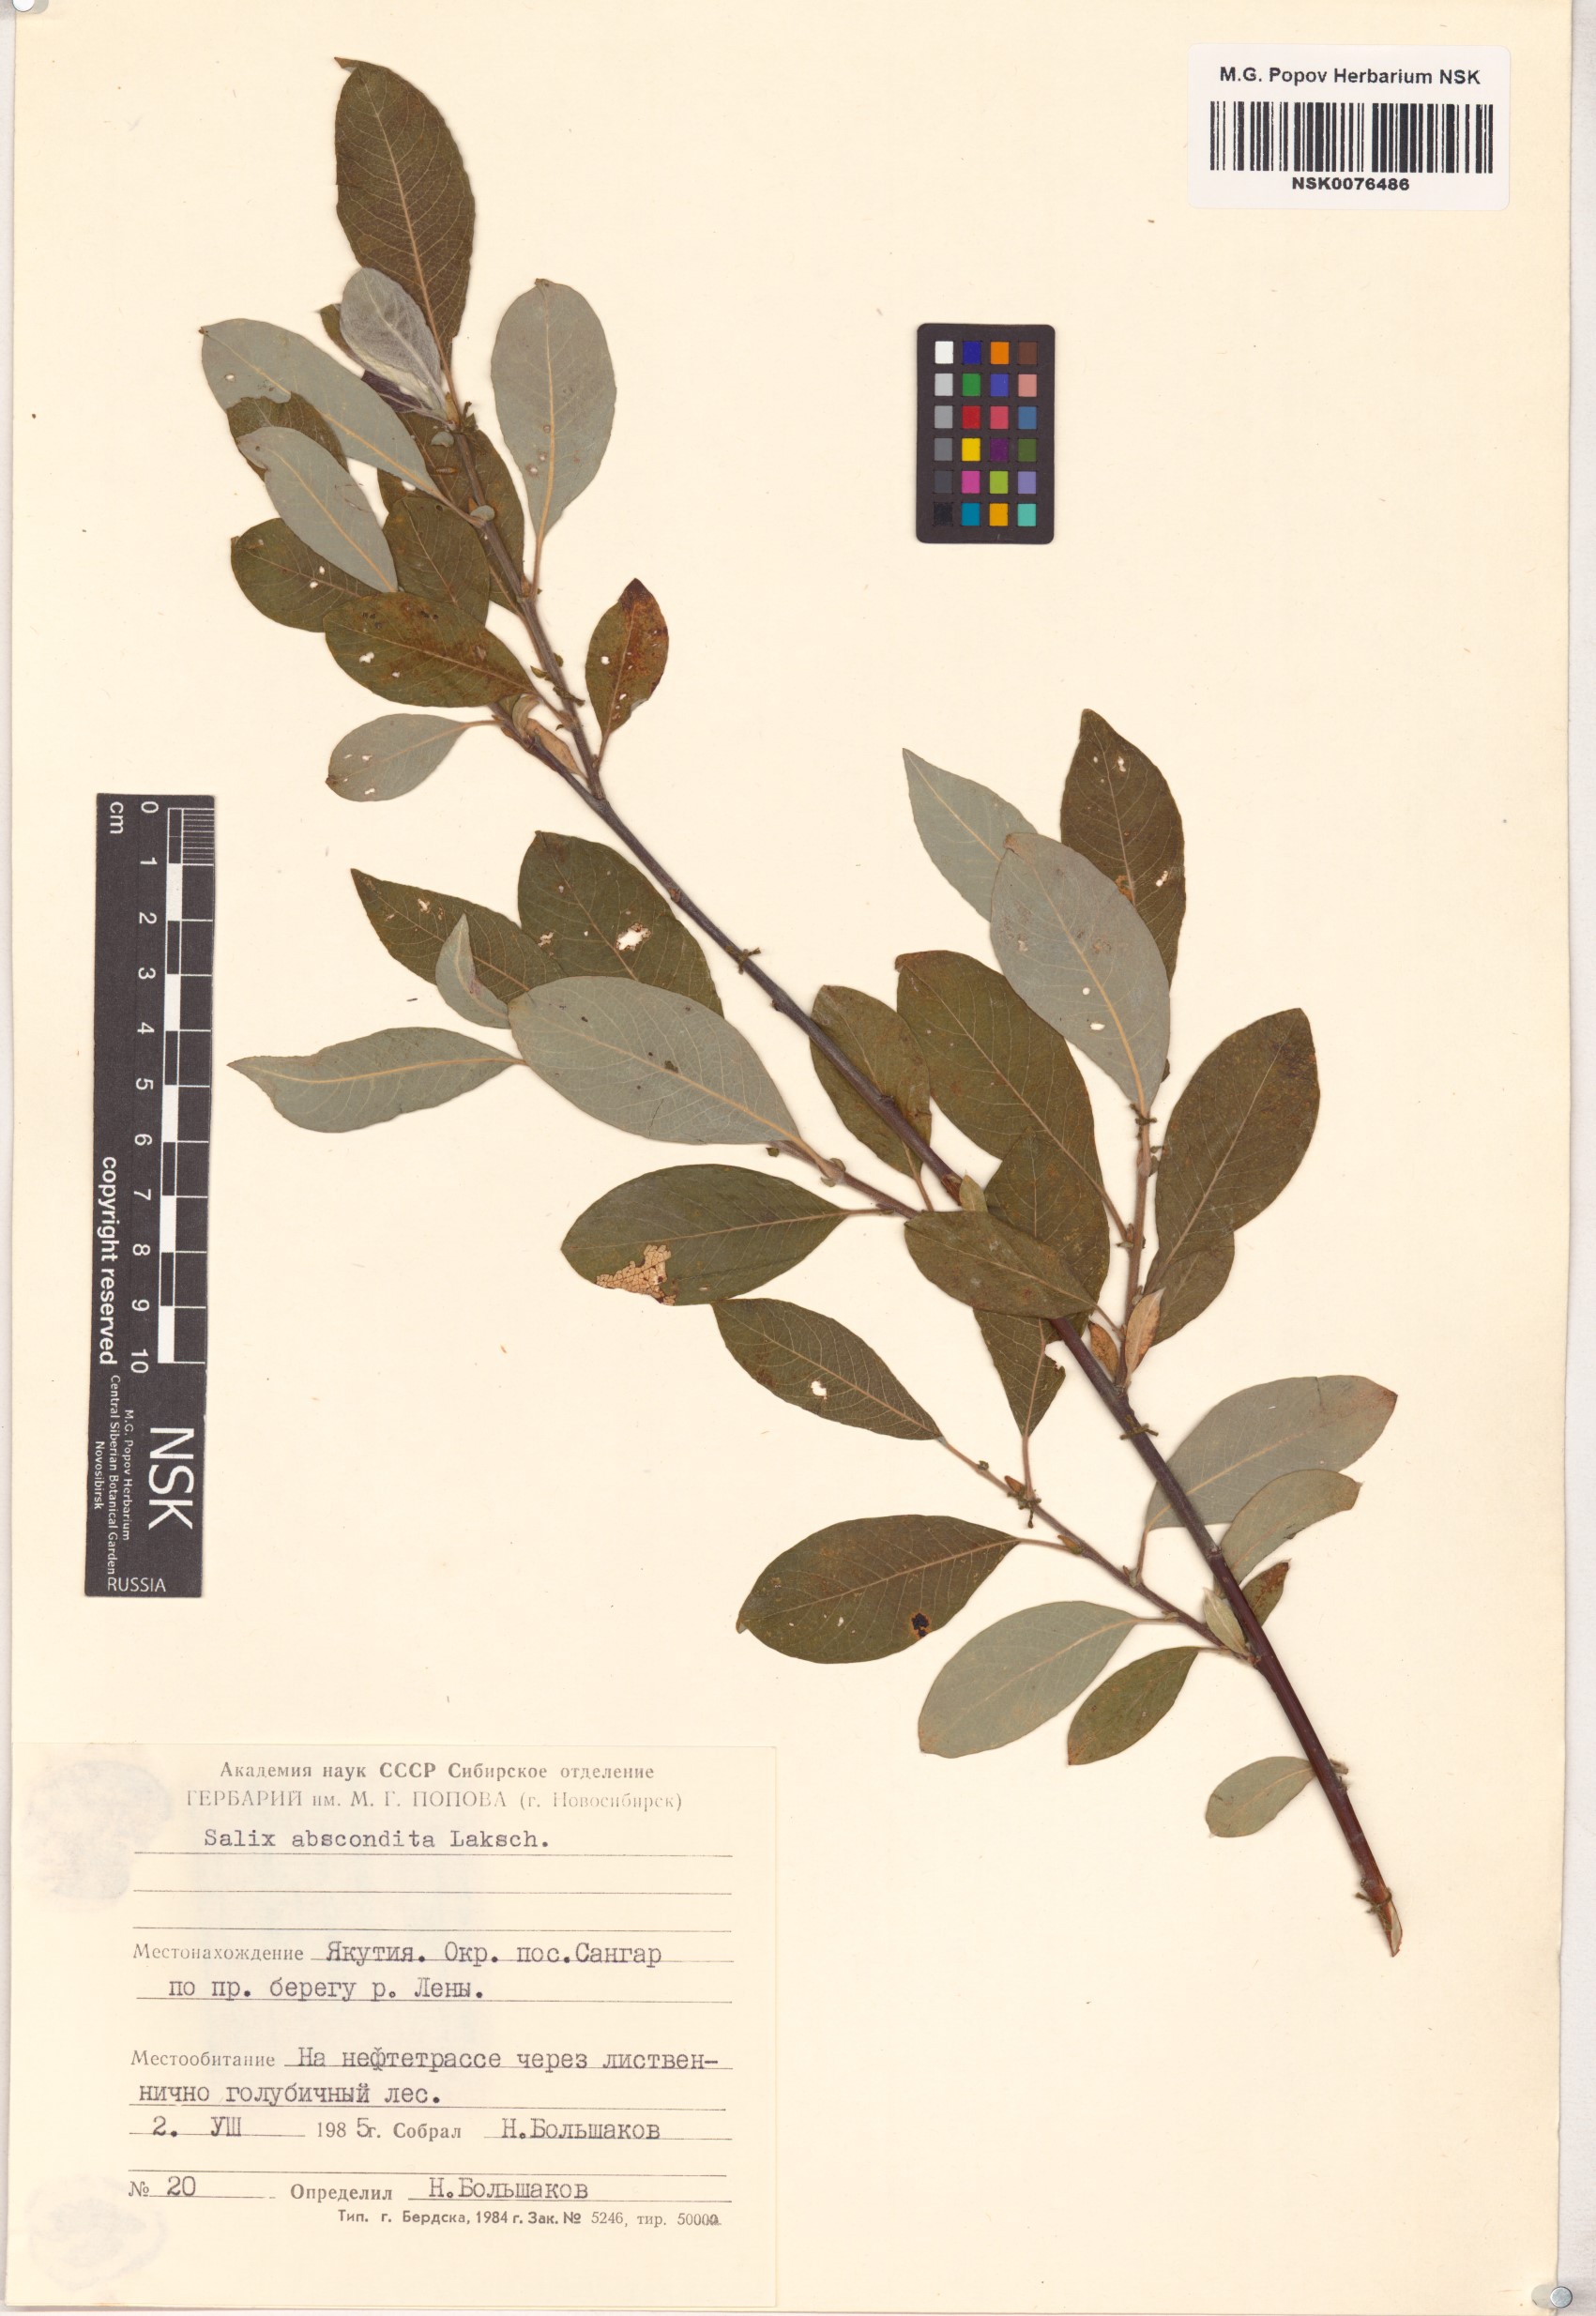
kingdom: Plantae
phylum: Tracheophyta
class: Magnoliopsida
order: Malpighiales
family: Salicaceae
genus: Salix
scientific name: Salix abscondita
